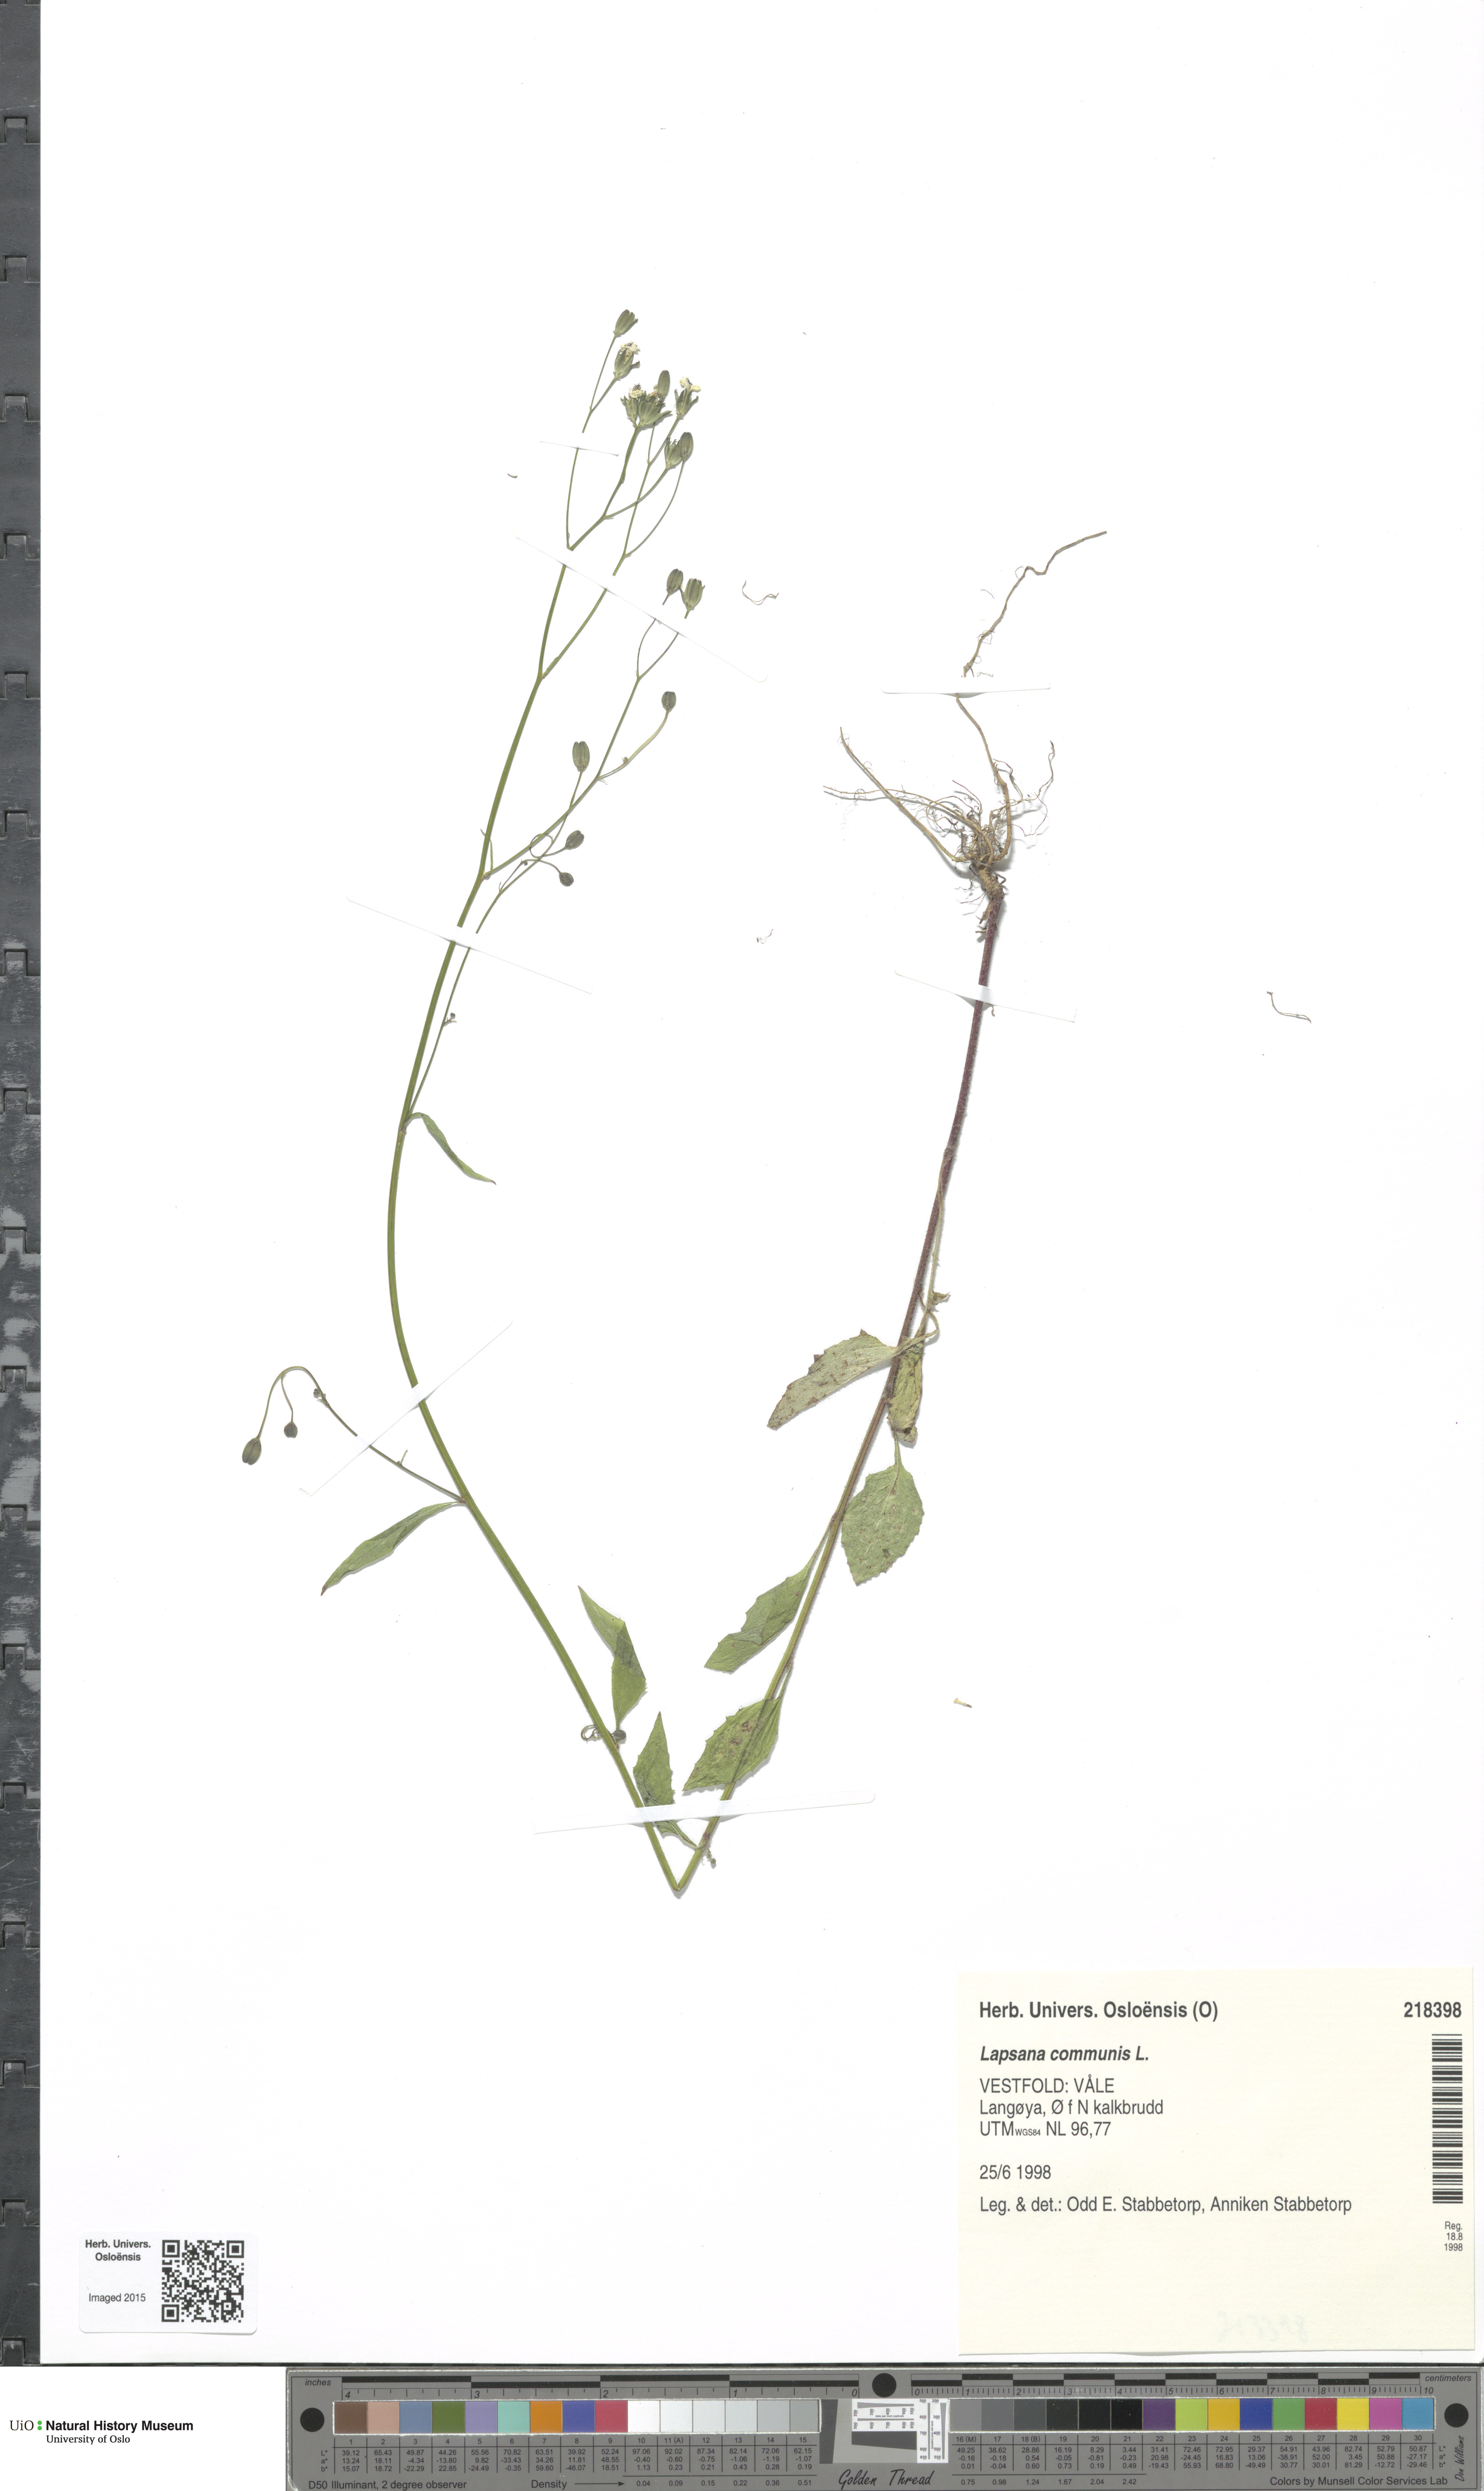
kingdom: Plantae
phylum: Tracheophyta
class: Magnoliopsida
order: Asterales
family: Asteraceae
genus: Lapsana
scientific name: Lapsana communis
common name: Nipplewort
